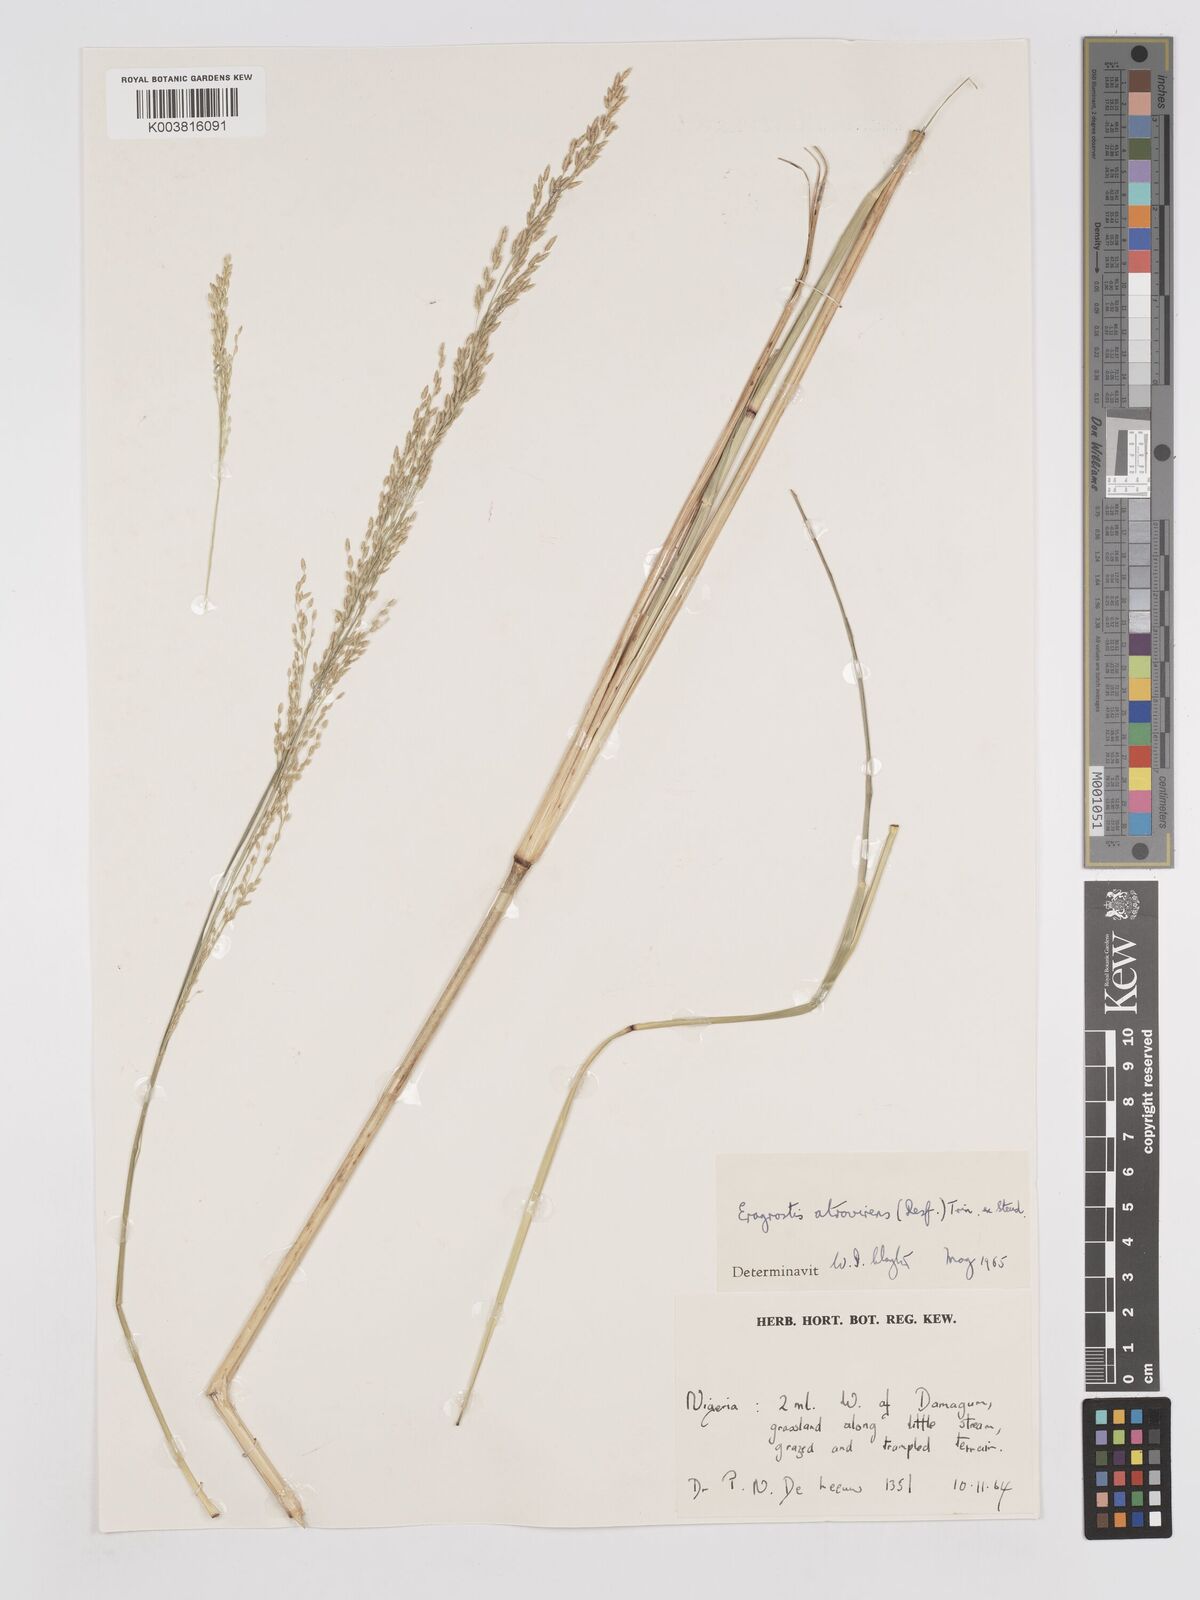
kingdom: Plantae
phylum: Tracheophyta
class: Liliopsida
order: Poales
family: Poaceae
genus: Eragrostis
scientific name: Eragrostis atrovirens
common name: Thalia lovegrass
